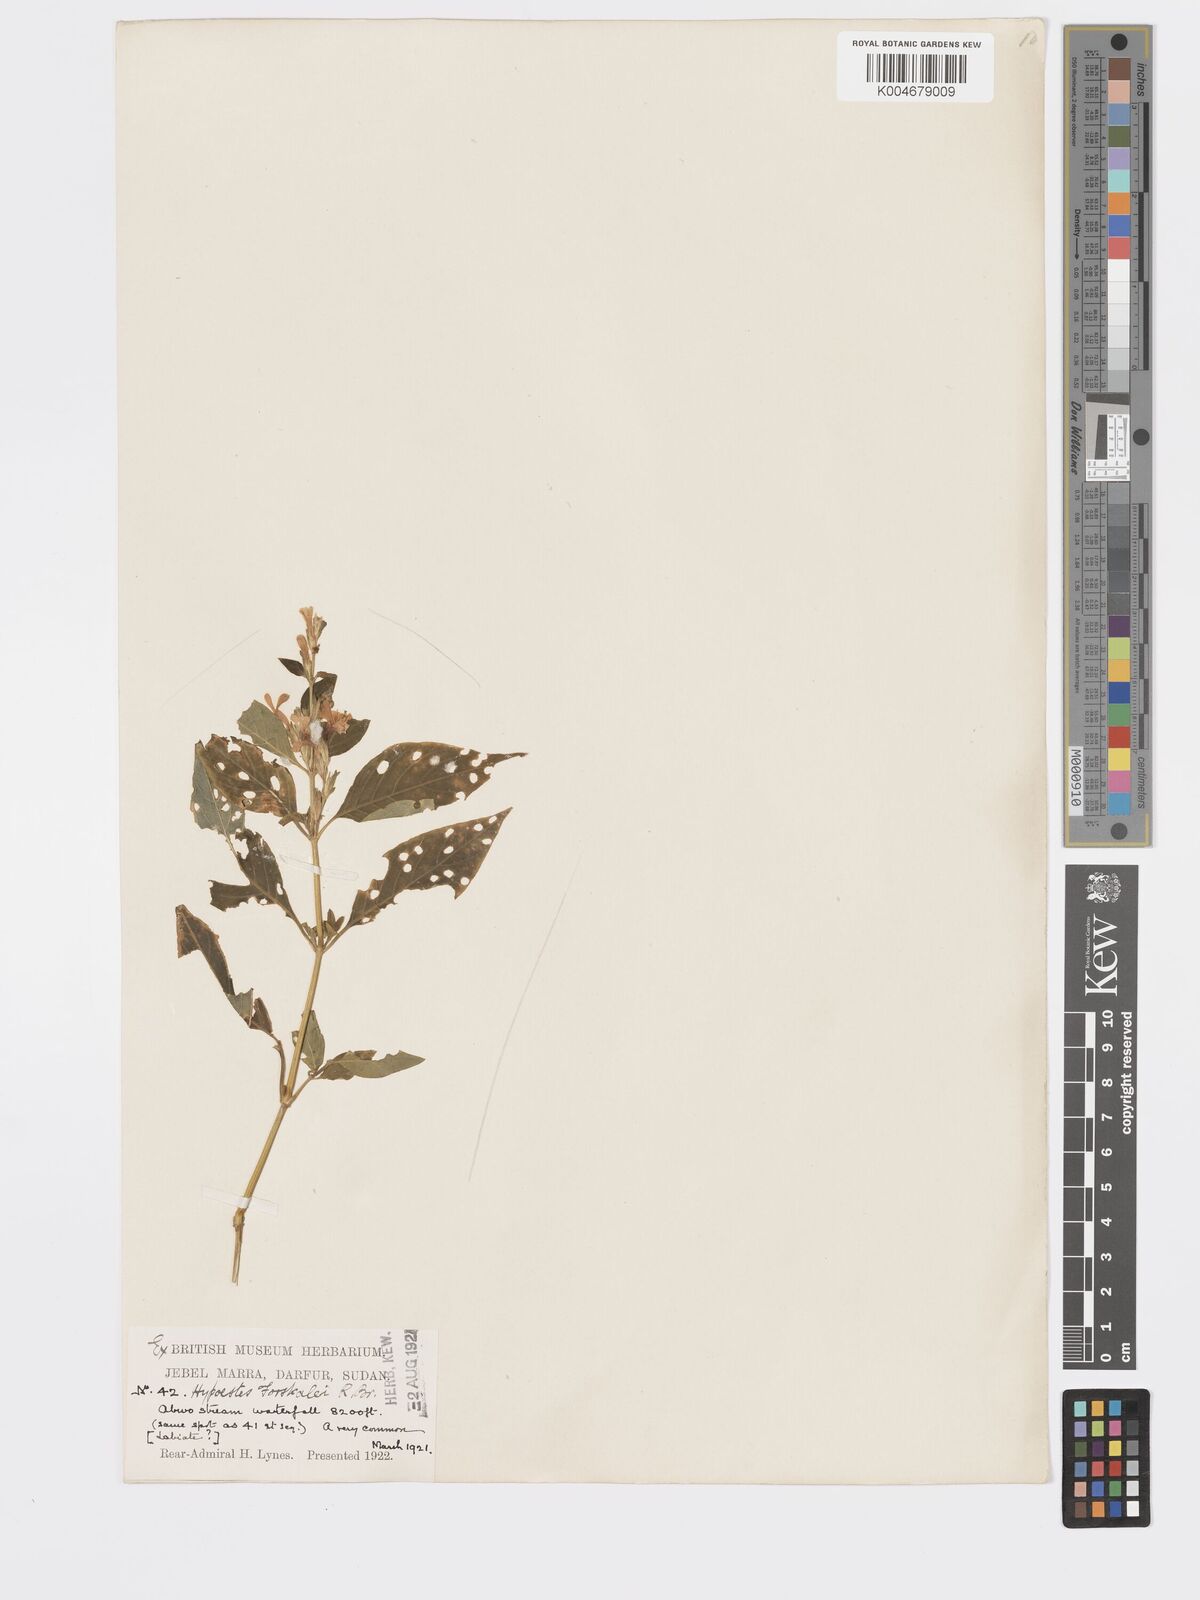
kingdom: Plantae
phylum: Tracheophyta
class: Magnoliopsida
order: Lamiales
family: Acanthaceae
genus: Hypoestes
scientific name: Hypoestes forskaolii
